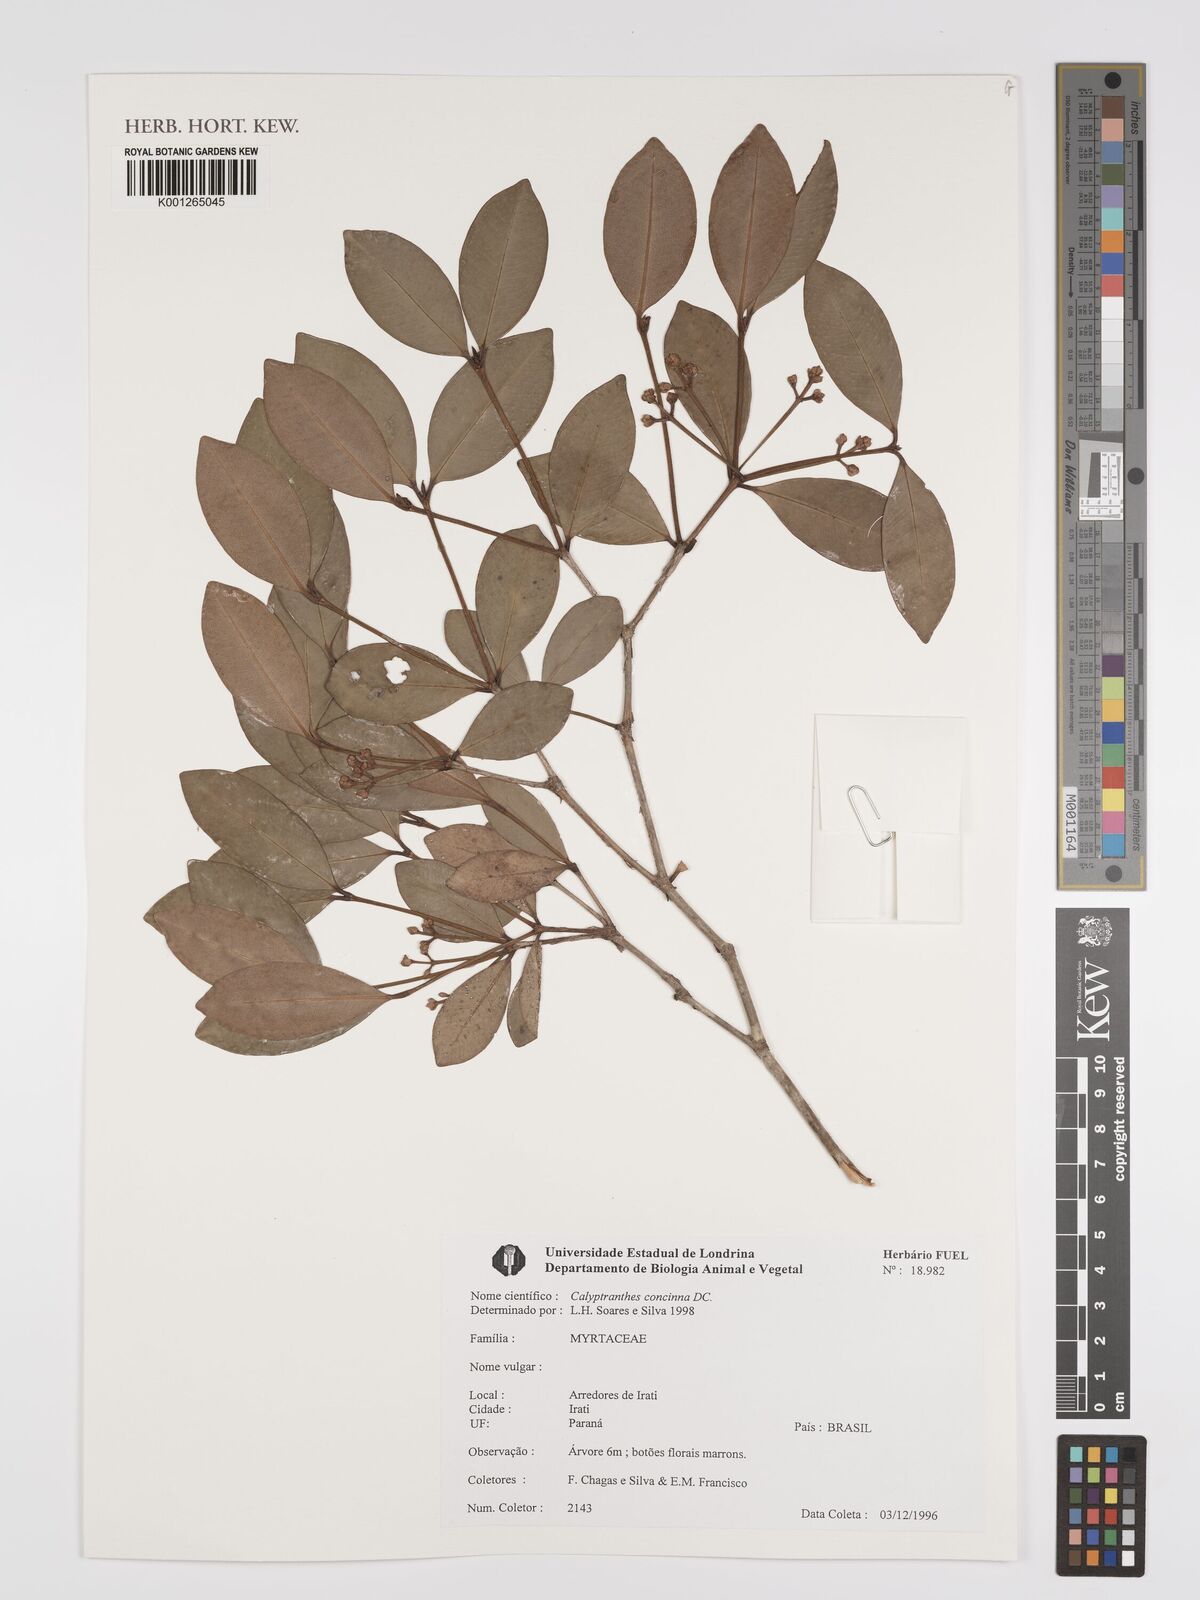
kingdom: Plantae
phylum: Tracheophyta
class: Magnoliopsida
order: Myrtales
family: Myrtaceae
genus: Myrcia
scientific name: Myrcia cruciflora
